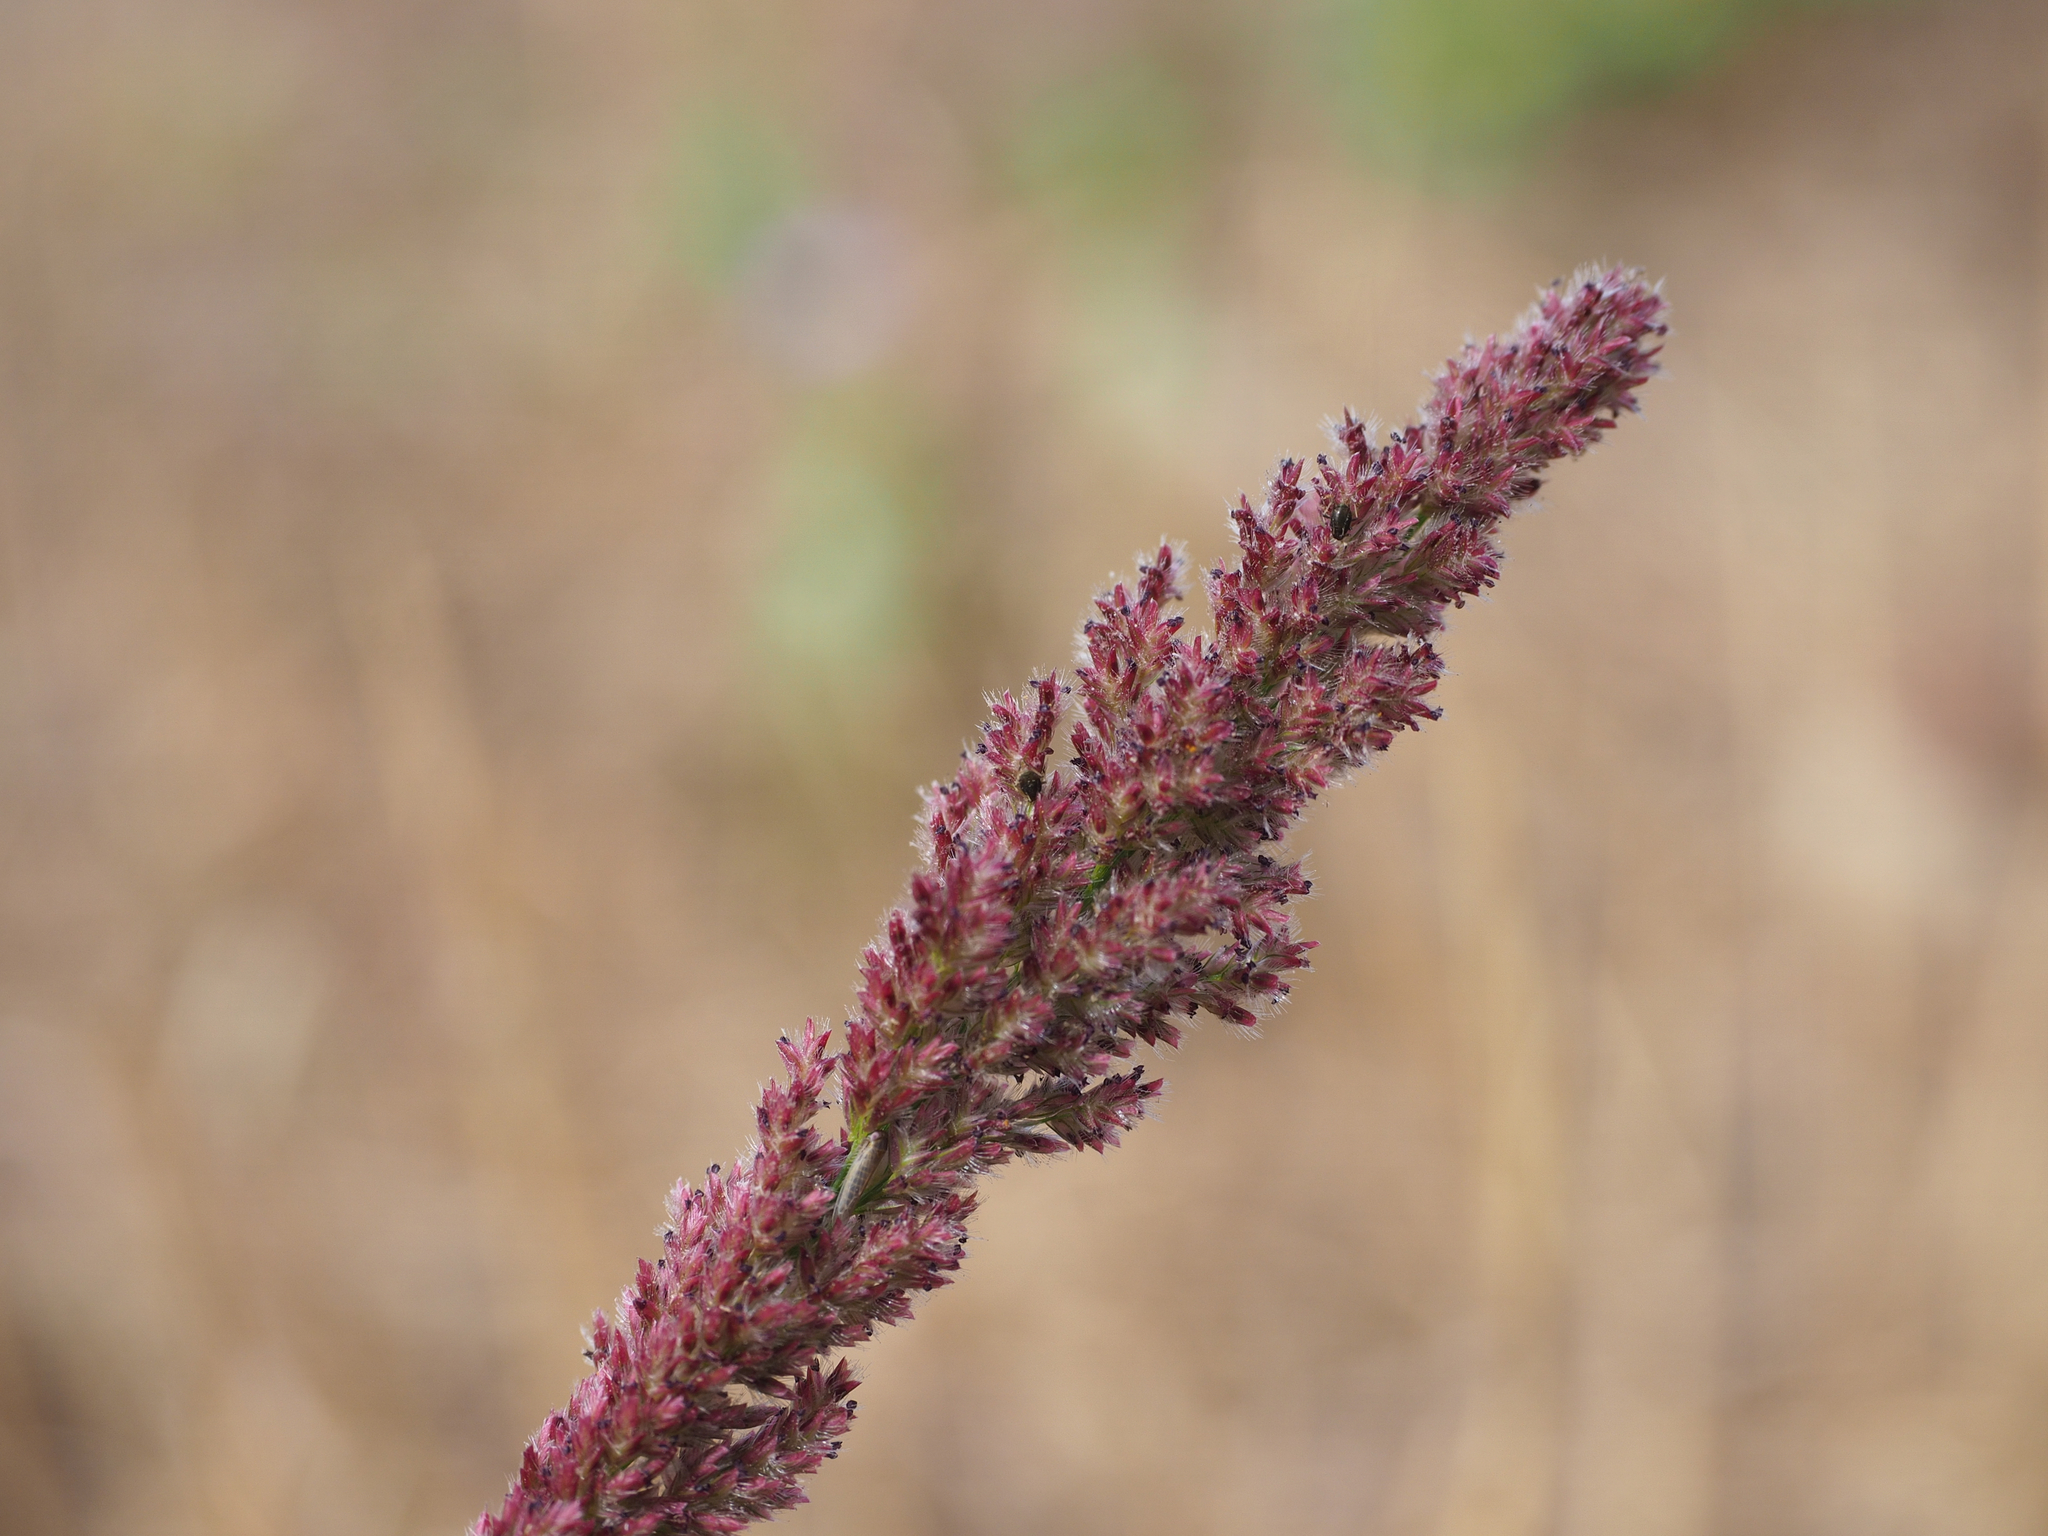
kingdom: Plantae
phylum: Tracheophyta
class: Liliopsida
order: Poales
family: Poaceae
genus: Eragrostis
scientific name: Eragrostis ciliaris
